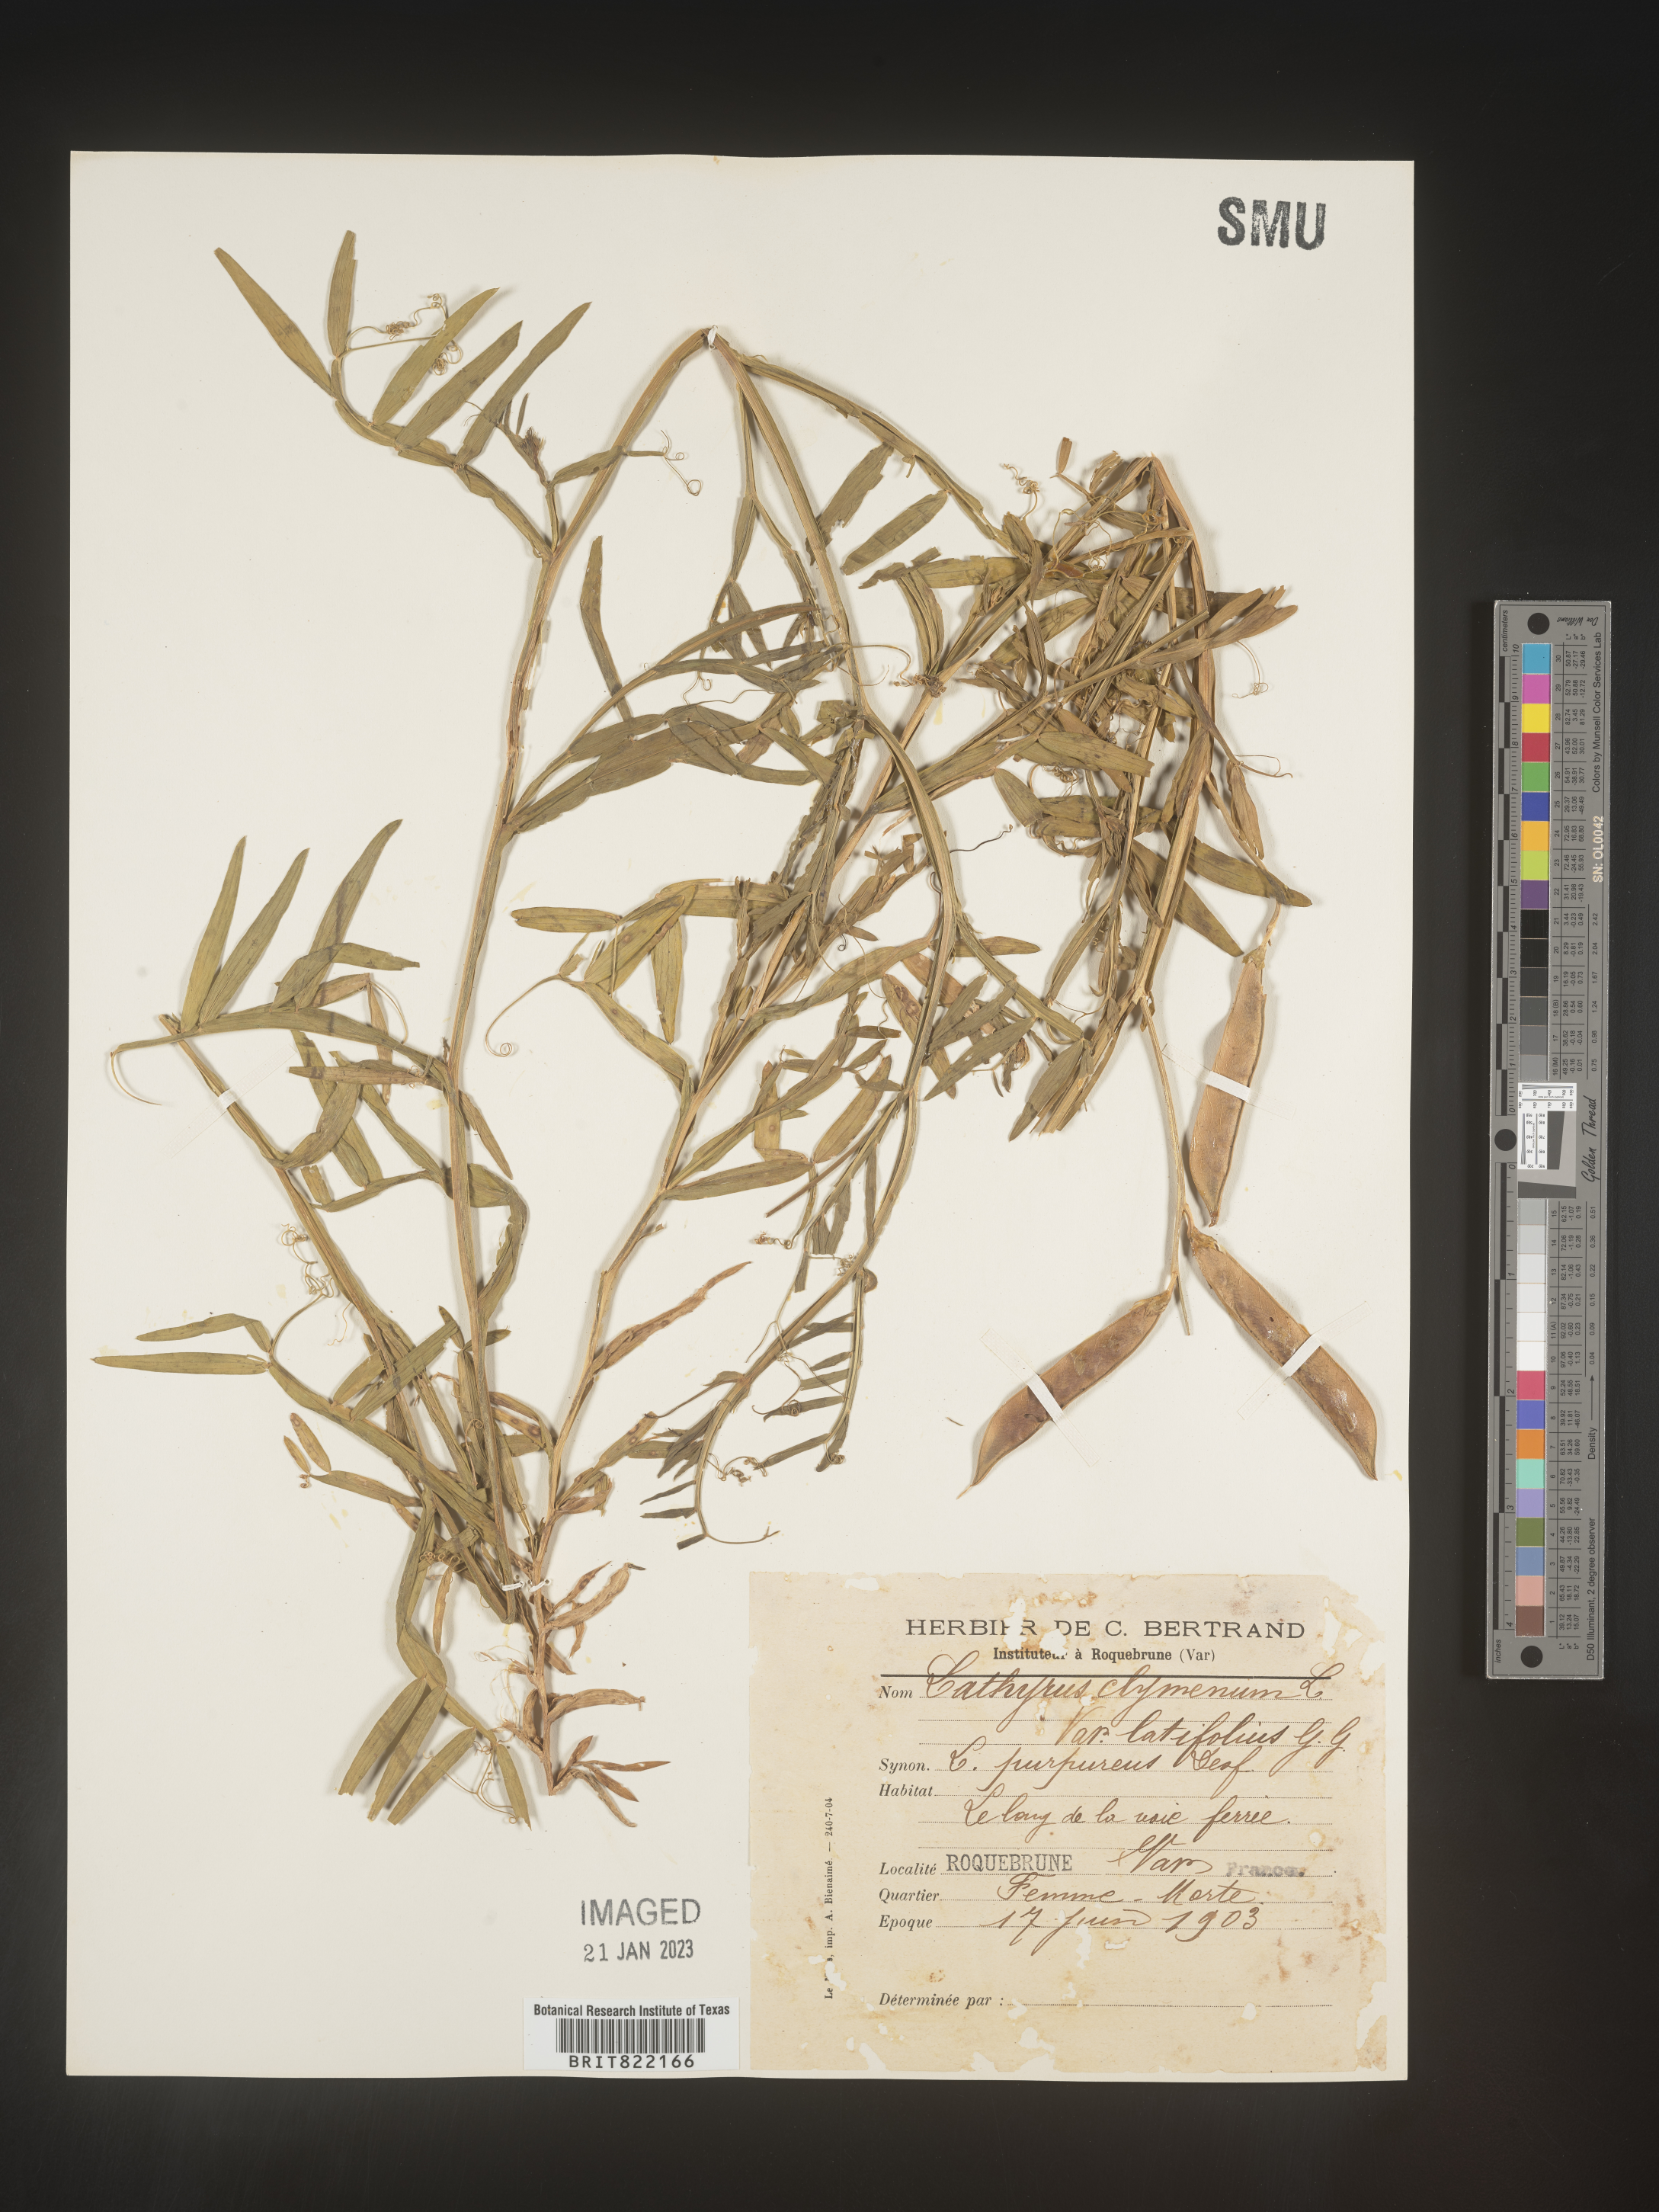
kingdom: Plantae
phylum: Tracheophyta
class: Magnoliopsida
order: Fabales
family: Fabaceae
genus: Lathyrus
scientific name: Lathyrus
